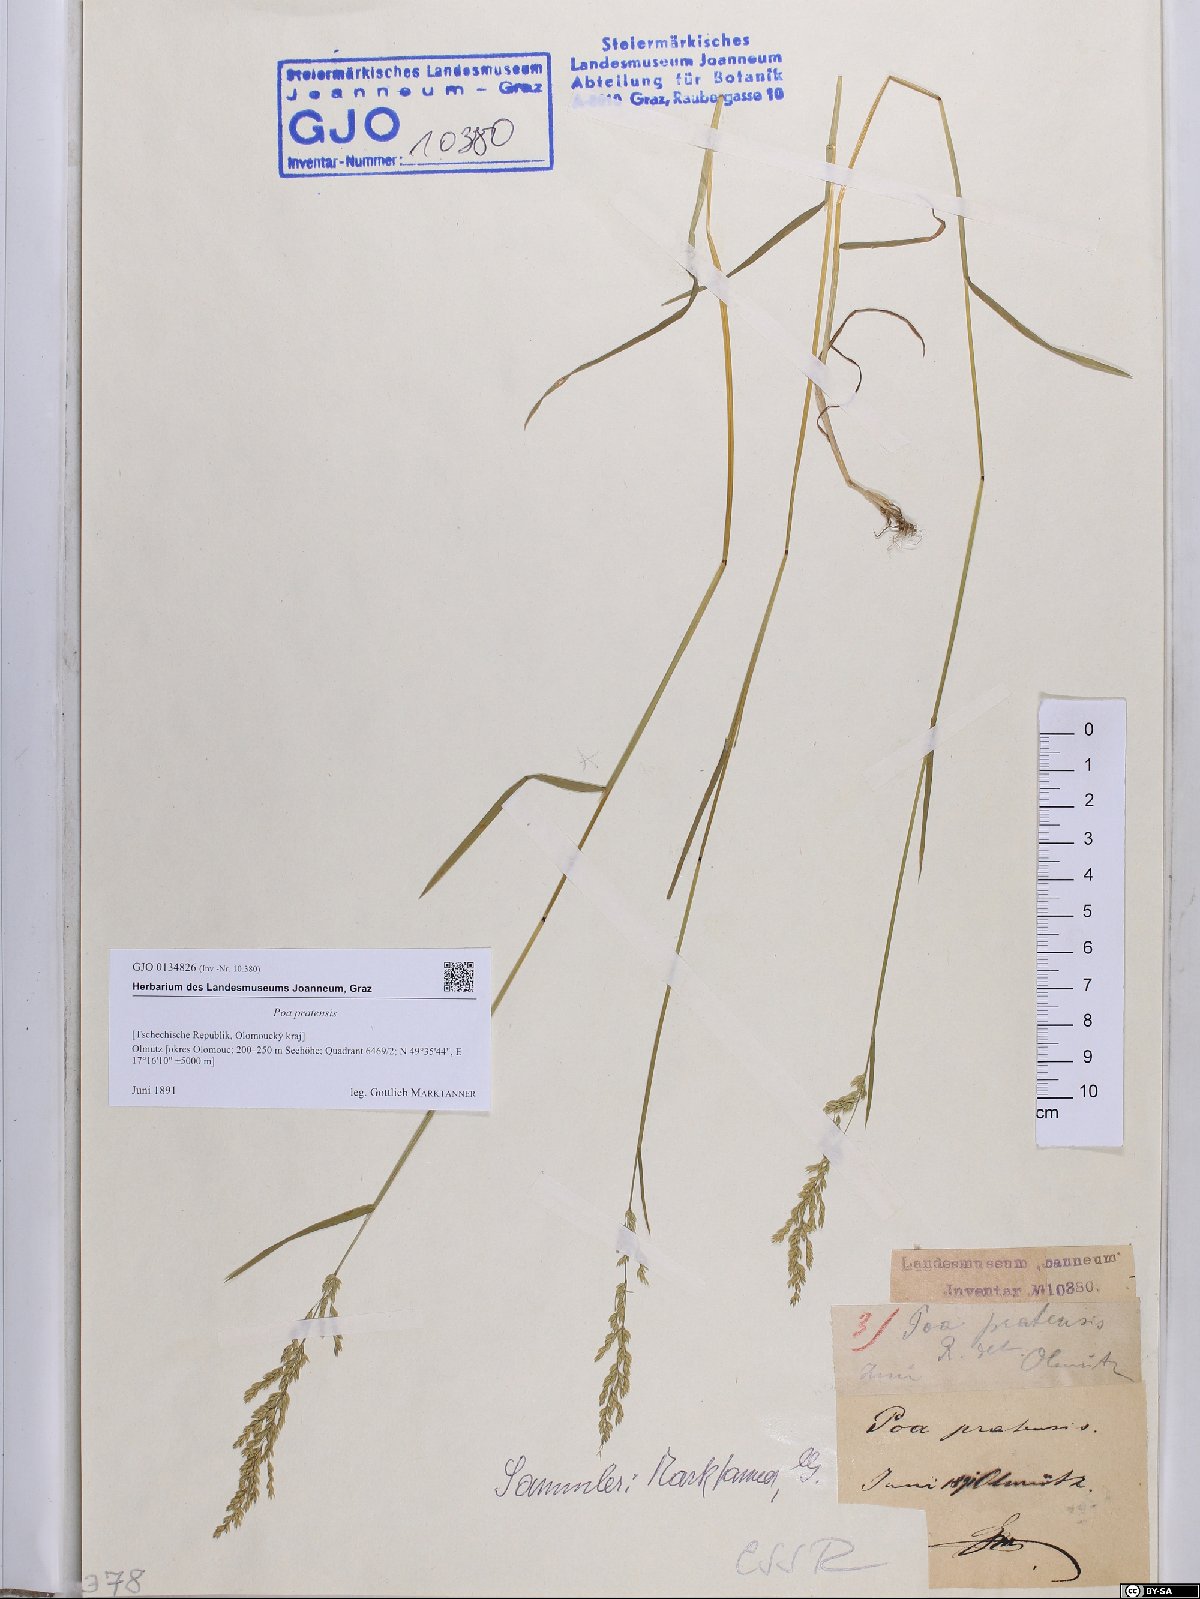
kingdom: Plantae
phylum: Tracheophyta
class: Liliopsida
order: Poales
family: Poaceae
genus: Poa
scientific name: Poa pratensis
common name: Kentucky bluegrass
